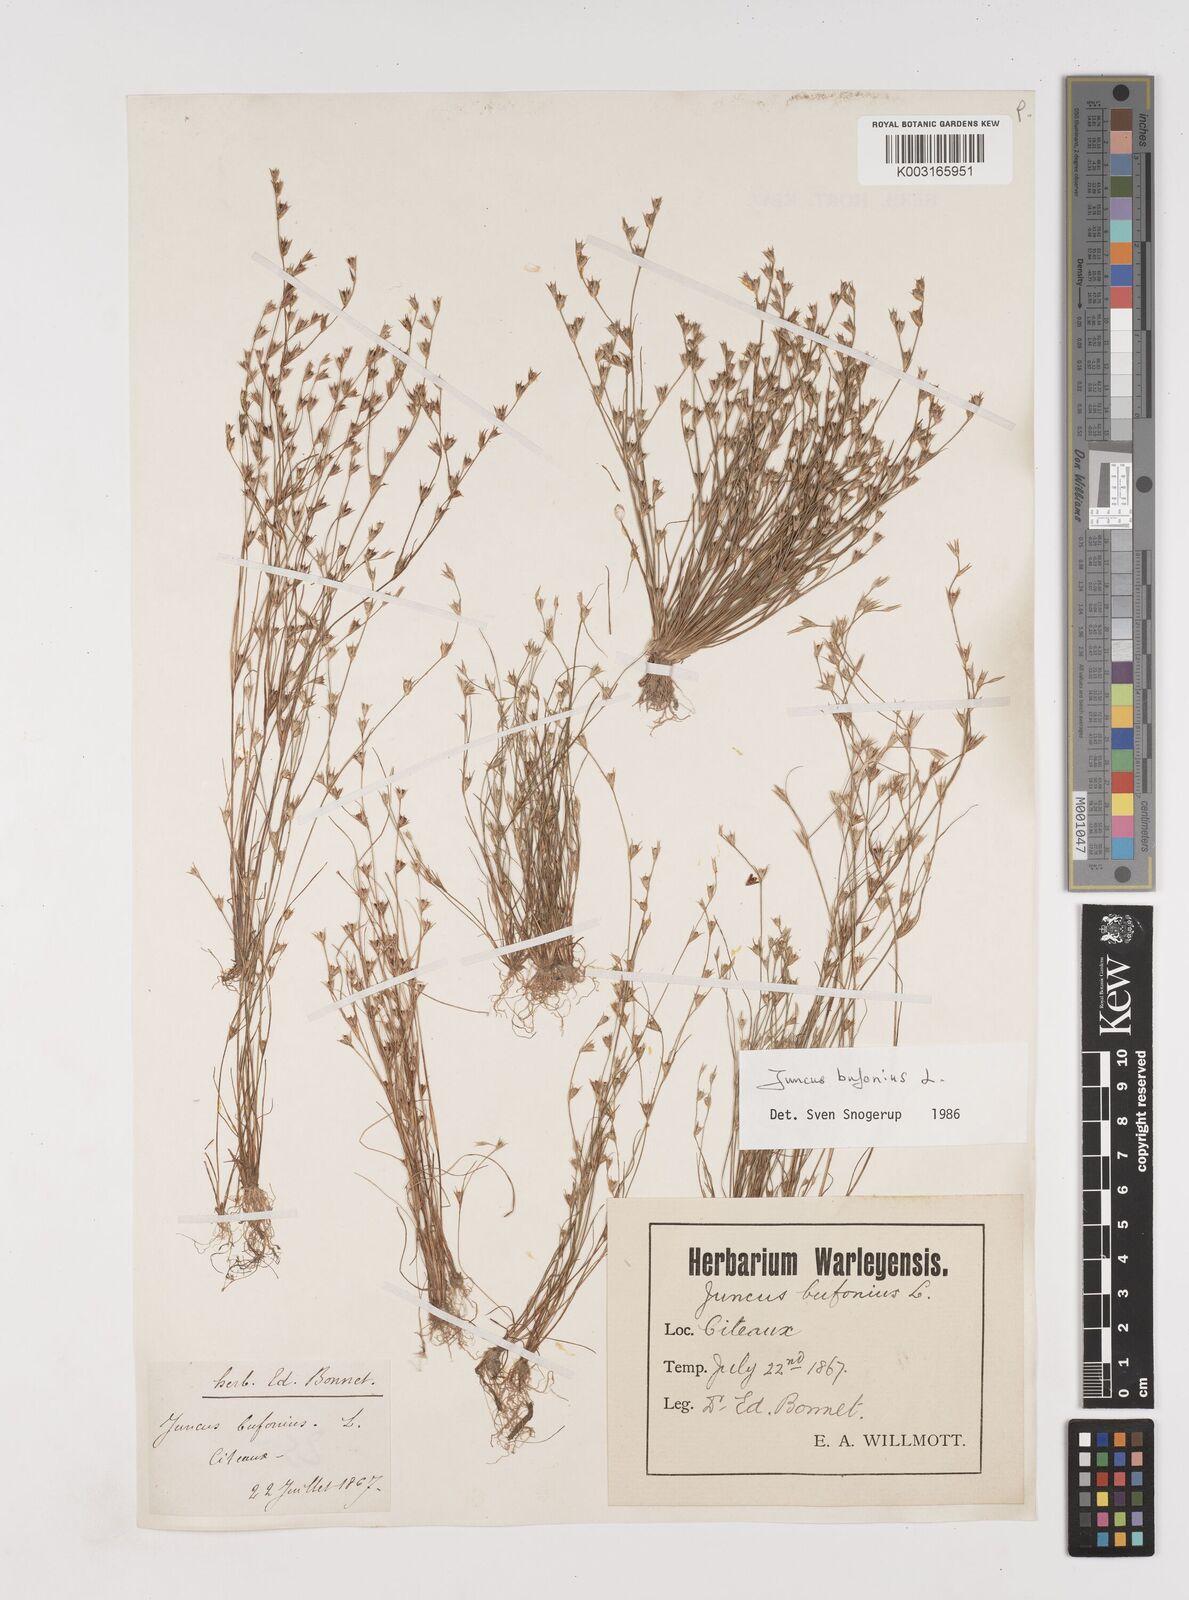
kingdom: Plantae
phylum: Tracheophyta
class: Liliopsida
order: Poales
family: Juncaceae
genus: Juncus
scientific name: Juncus bufonius
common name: Toad rush
